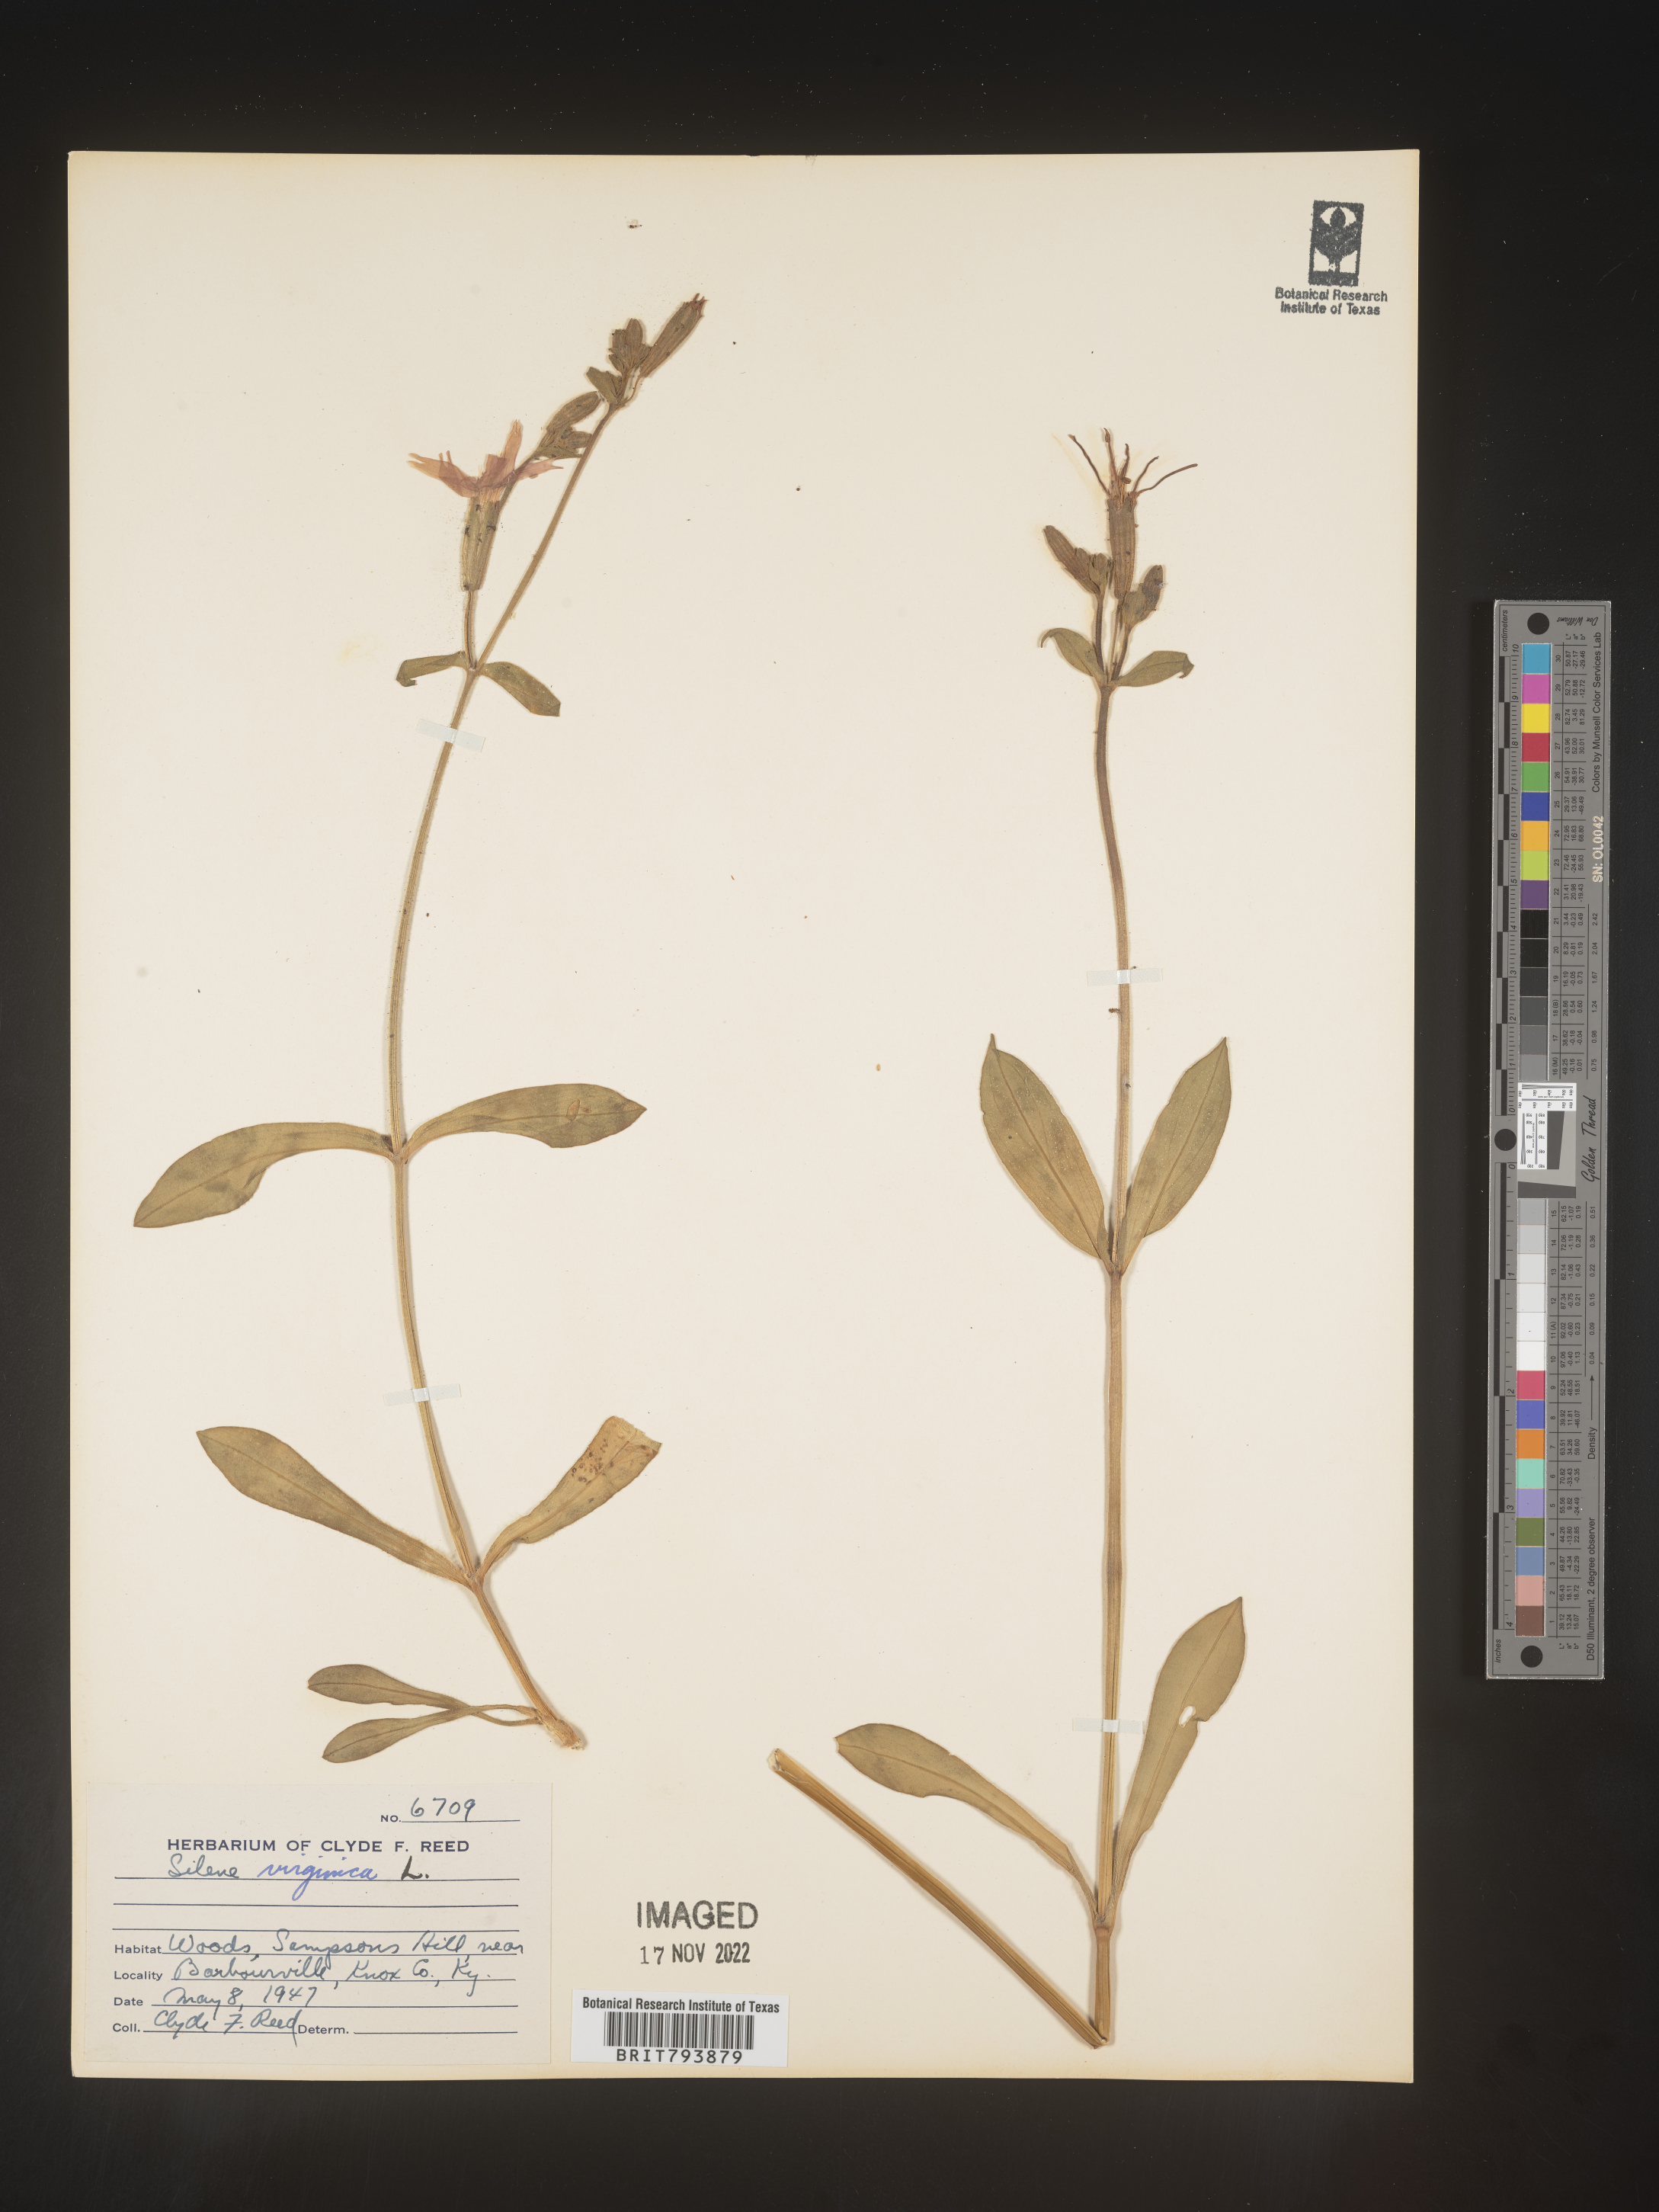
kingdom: Plantae
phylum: Tracheophyta
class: Magnoliopsida
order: Caryophyllales
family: Caryophyllaceae
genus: Silene
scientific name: Silene virginica
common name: Fire-pink
